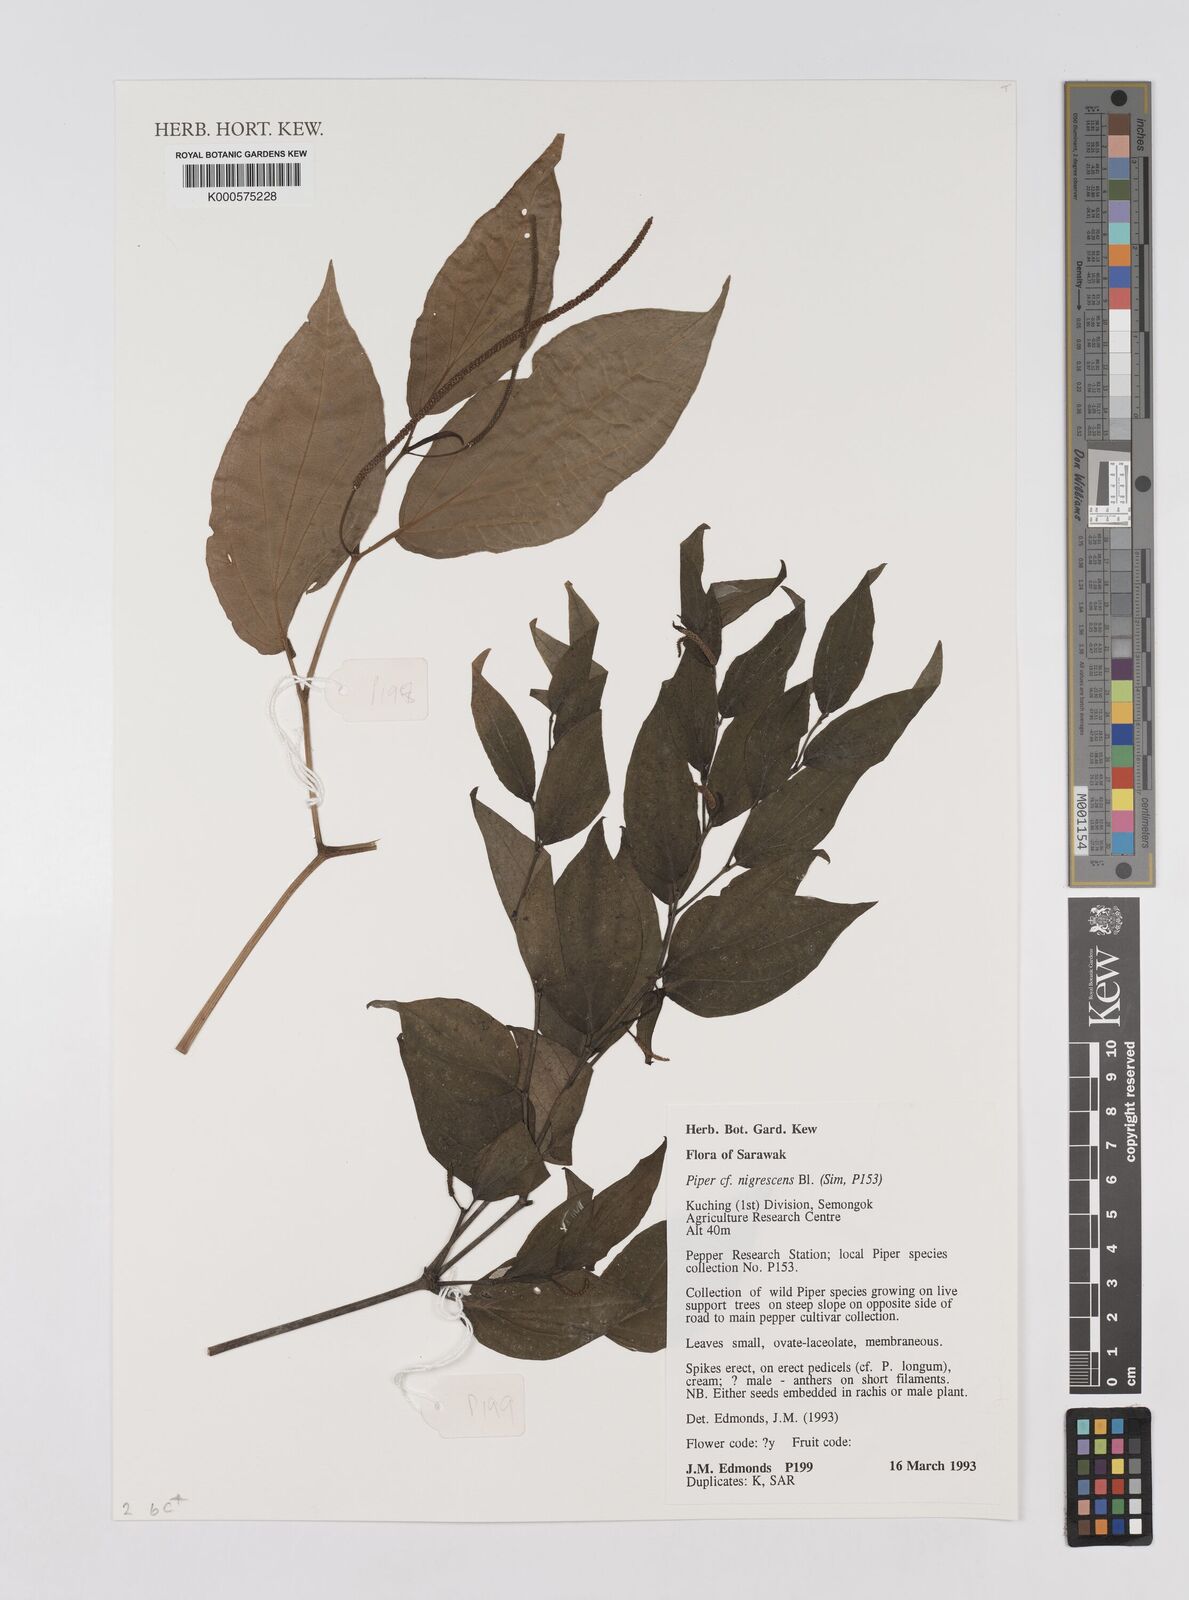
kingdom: Plantae
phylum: Tracheophyta
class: Magnoliopsida
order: Piperales
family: Piperaceae
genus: Piper
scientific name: Piper sulcatum
